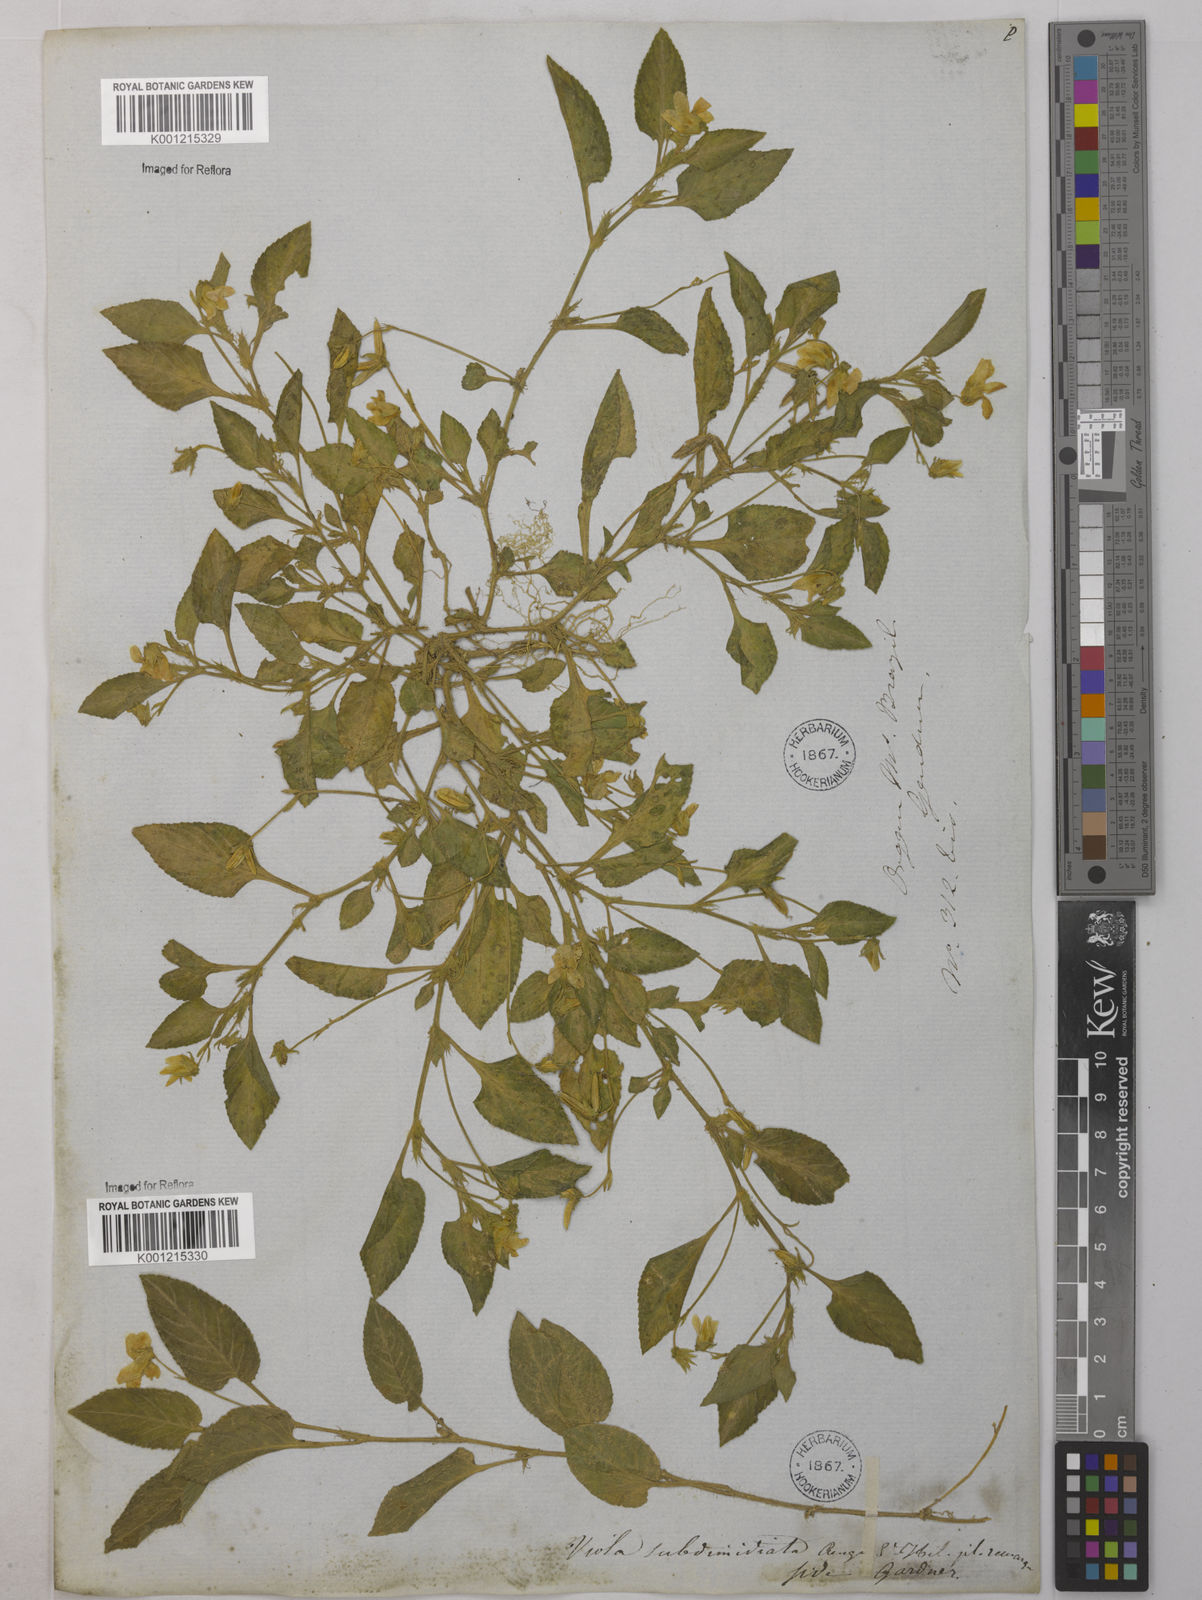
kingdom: Plantae
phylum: Tracheophyta
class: Magnoliopsida
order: Malpighiales
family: Violaceae
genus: Viola
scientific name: Viola subdimidiata
